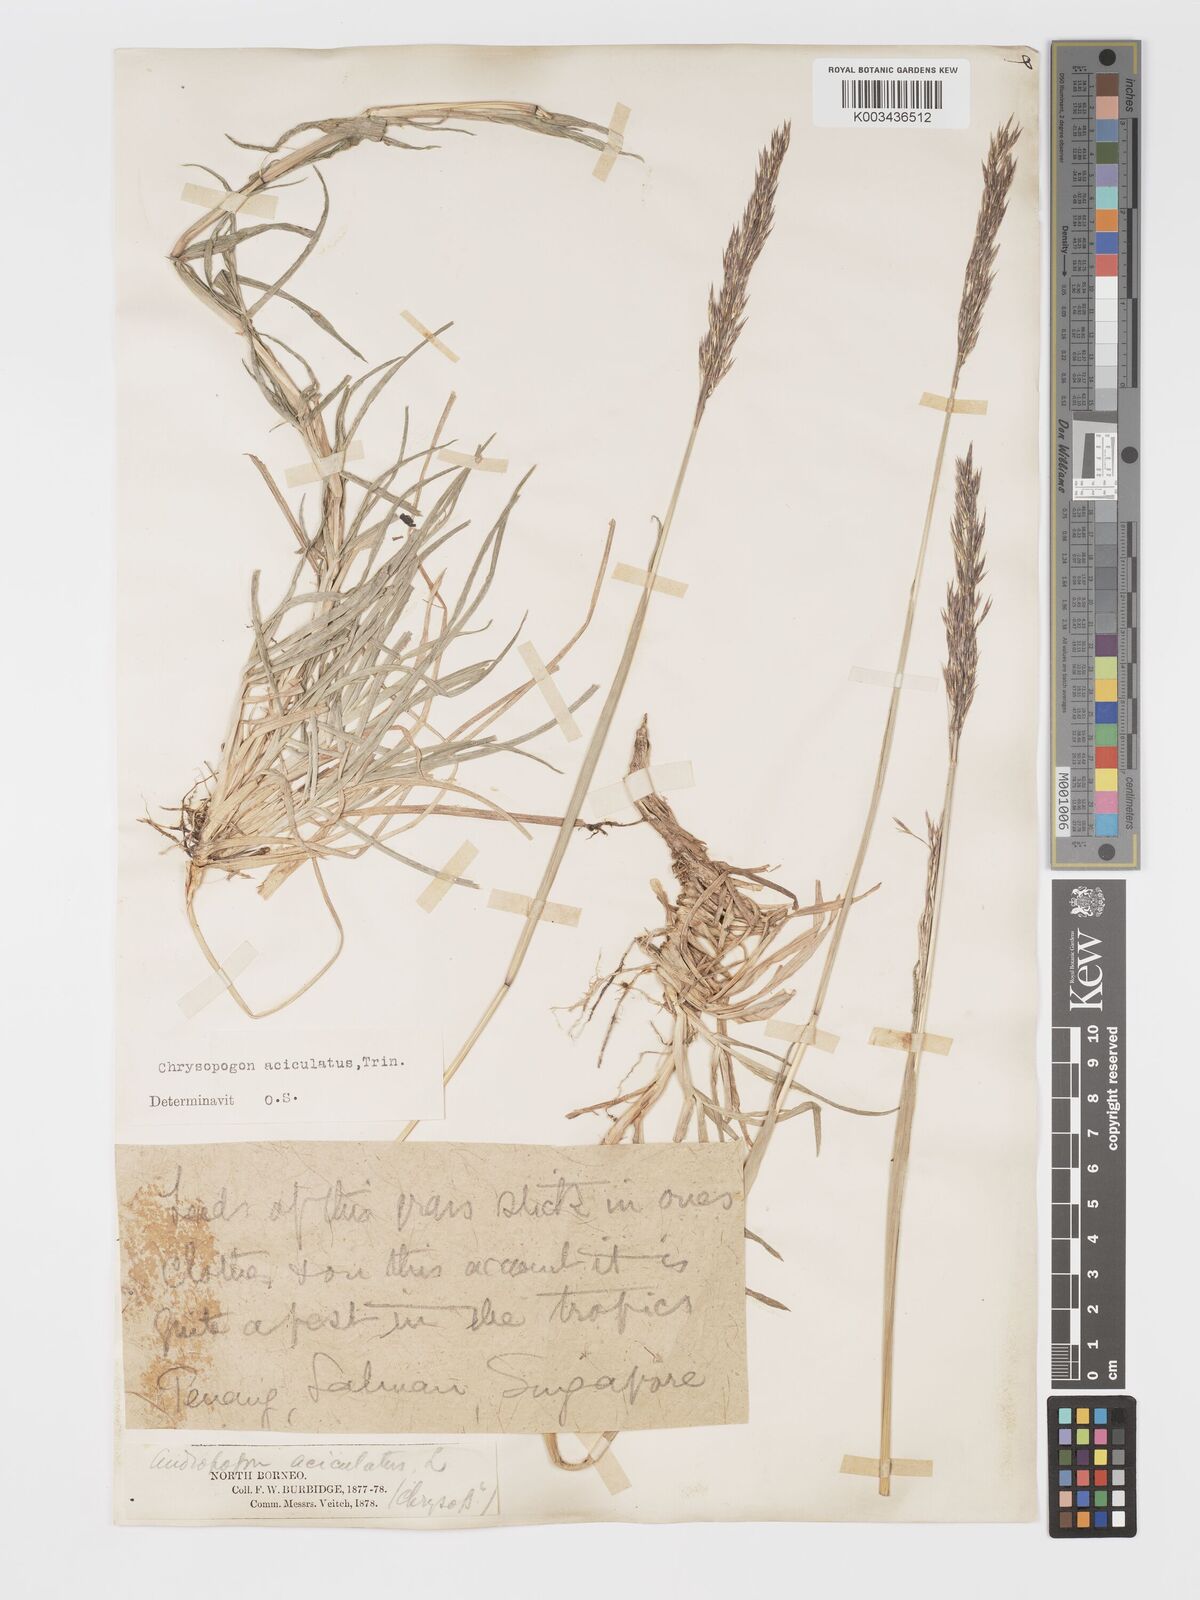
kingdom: Plantae
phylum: Tracheophyta
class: Liliopsida
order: Poales
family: Poaceae
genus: Chrysopogon
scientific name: Chrysopogon aciculatus
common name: Pilipiliula
